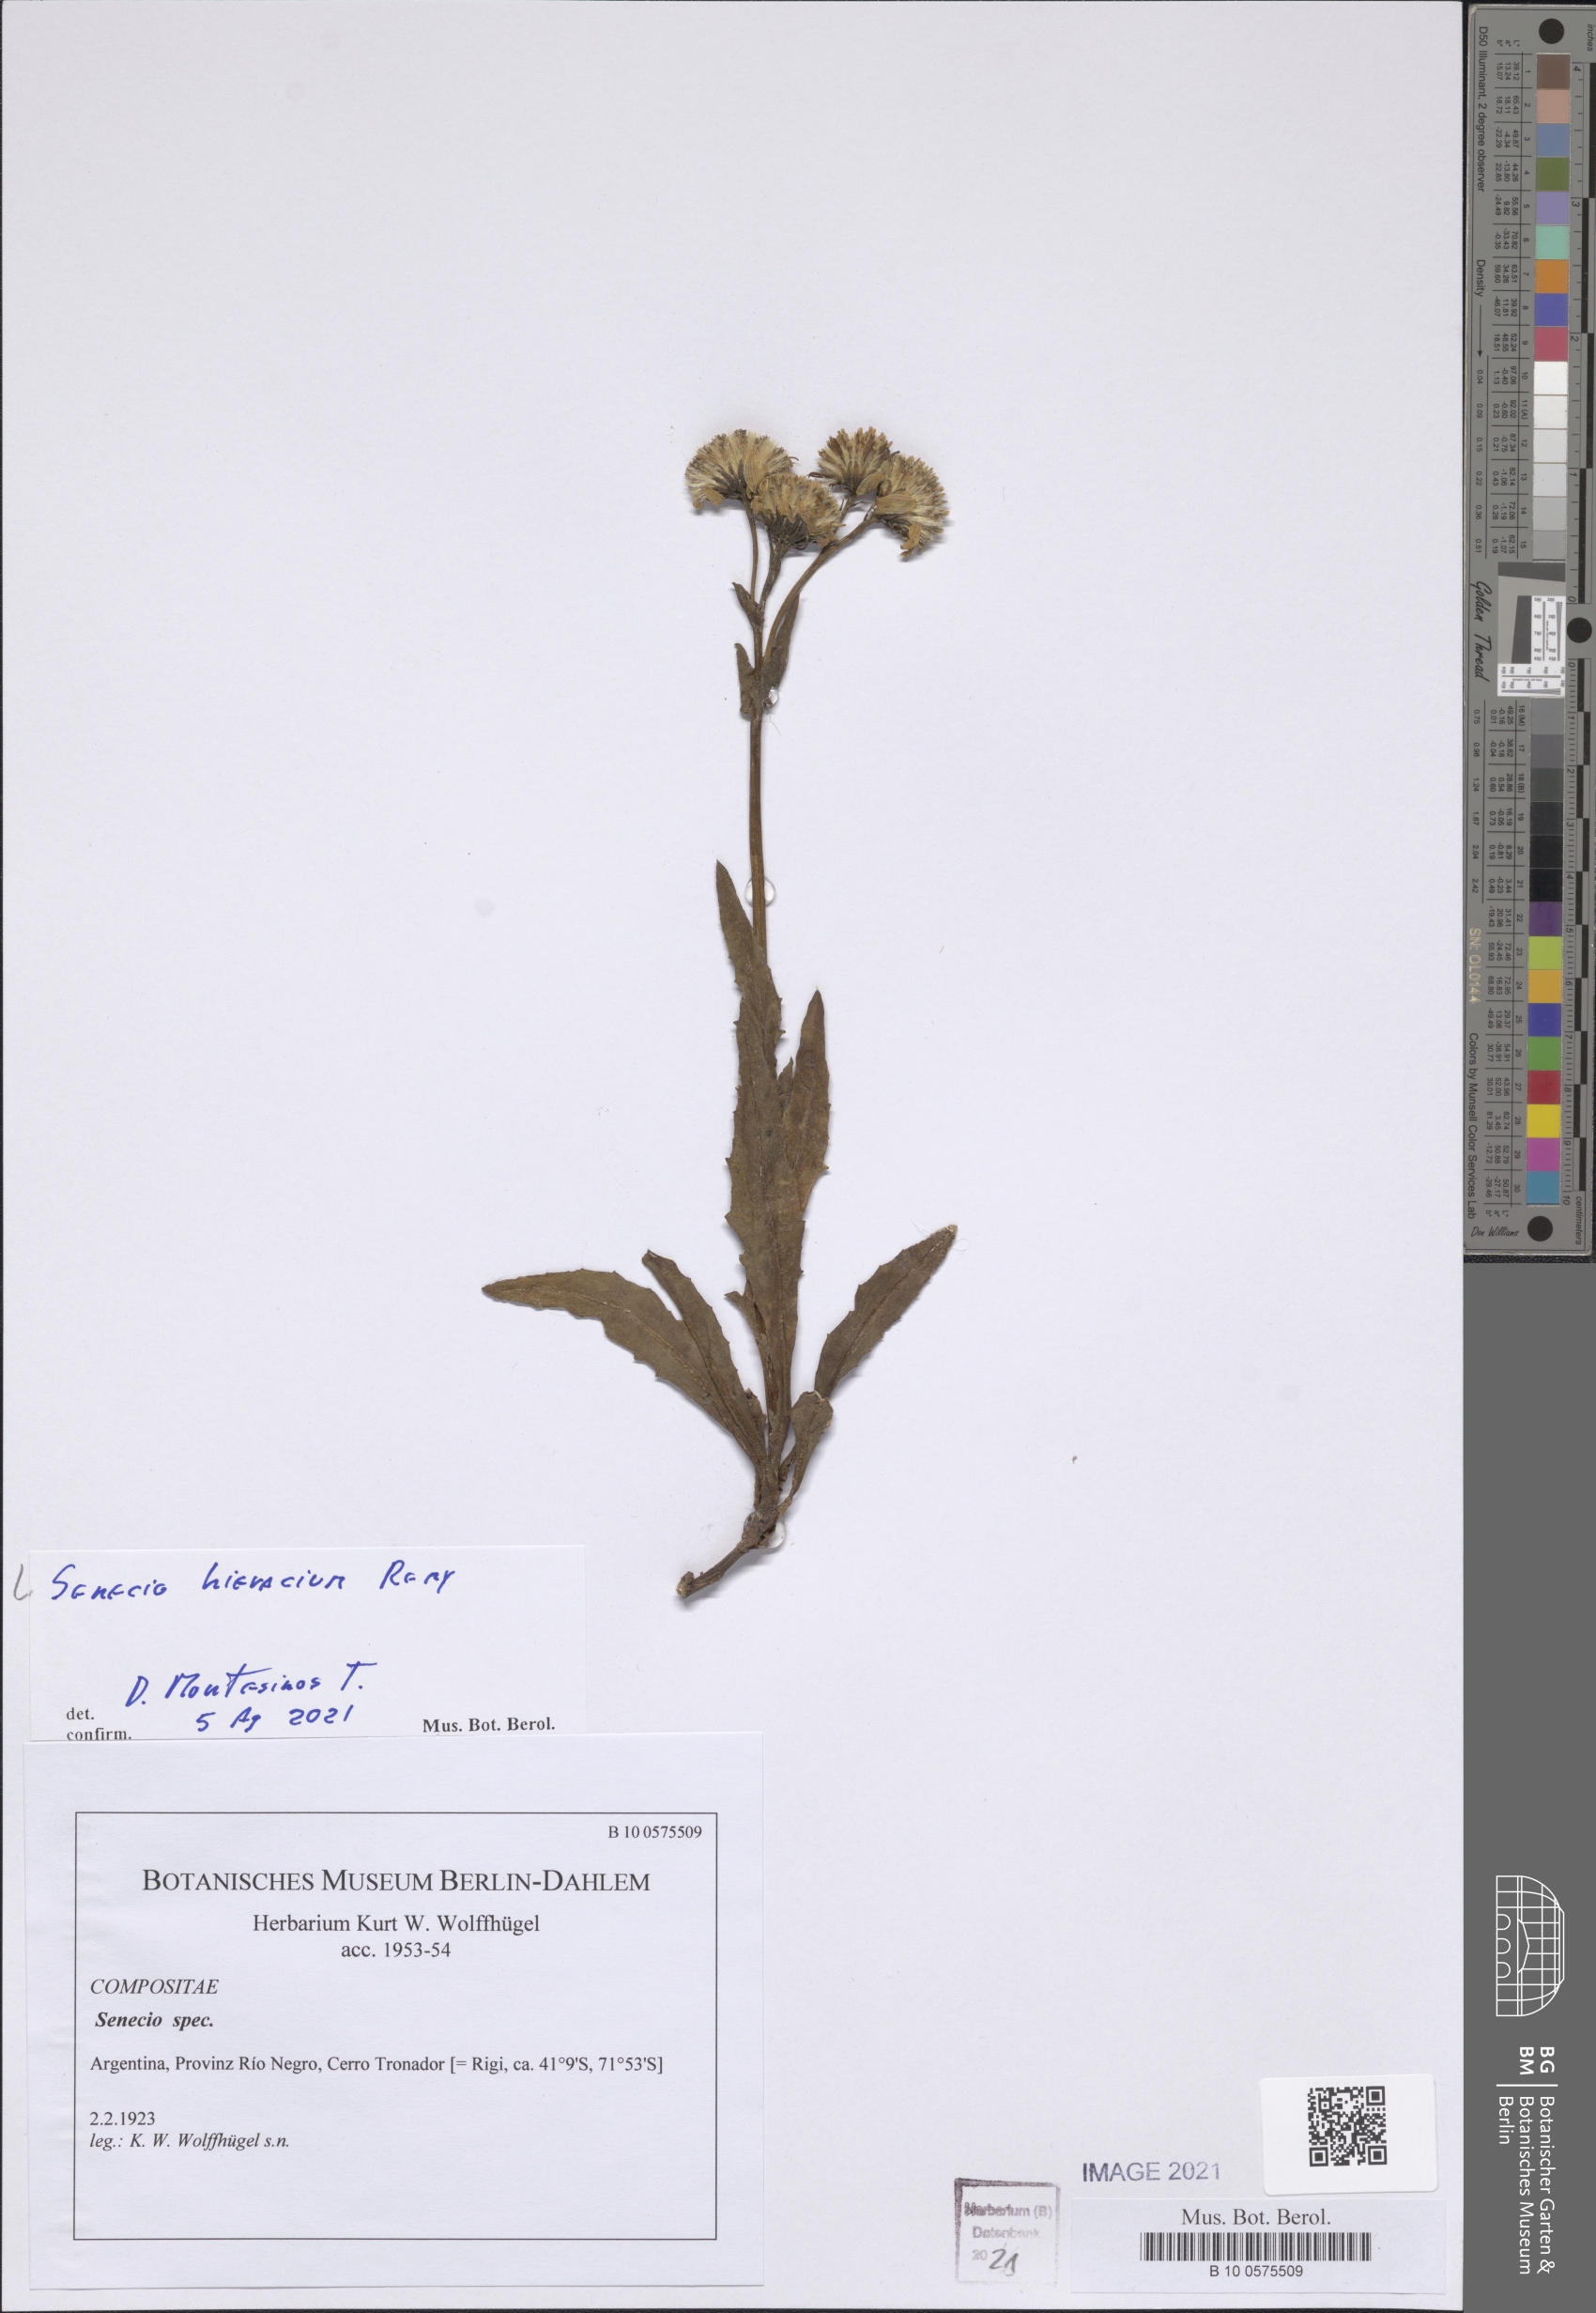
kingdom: Plantae
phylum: Tracheophyta
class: Magnoliopsida
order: Asterales
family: Asteraceae
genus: Senecio
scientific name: Senecio hieracium
